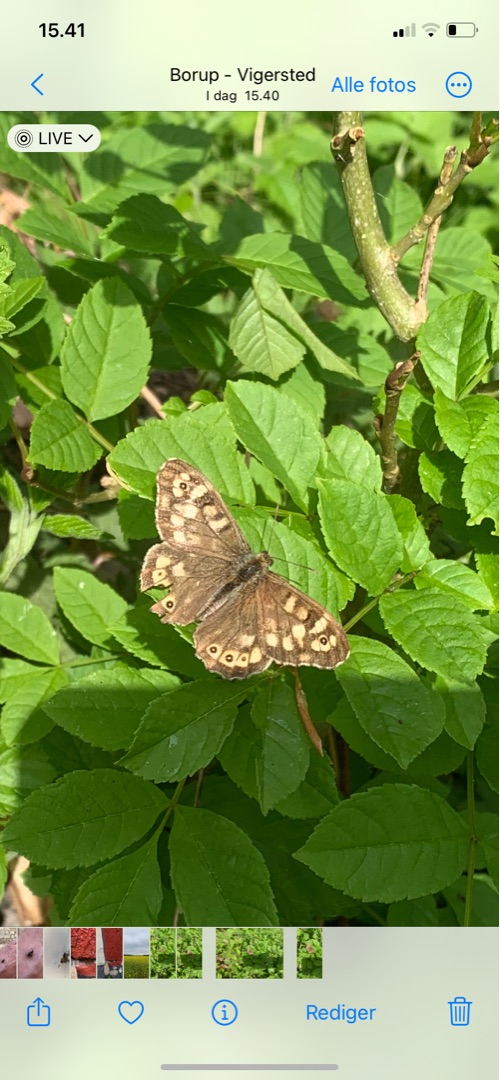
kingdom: Animalia
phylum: Arthropoda
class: Insecta
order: Lepidoptera
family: Nymphalidae
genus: Pararge
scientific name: Pararge aegeria
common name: Skovrandøje
